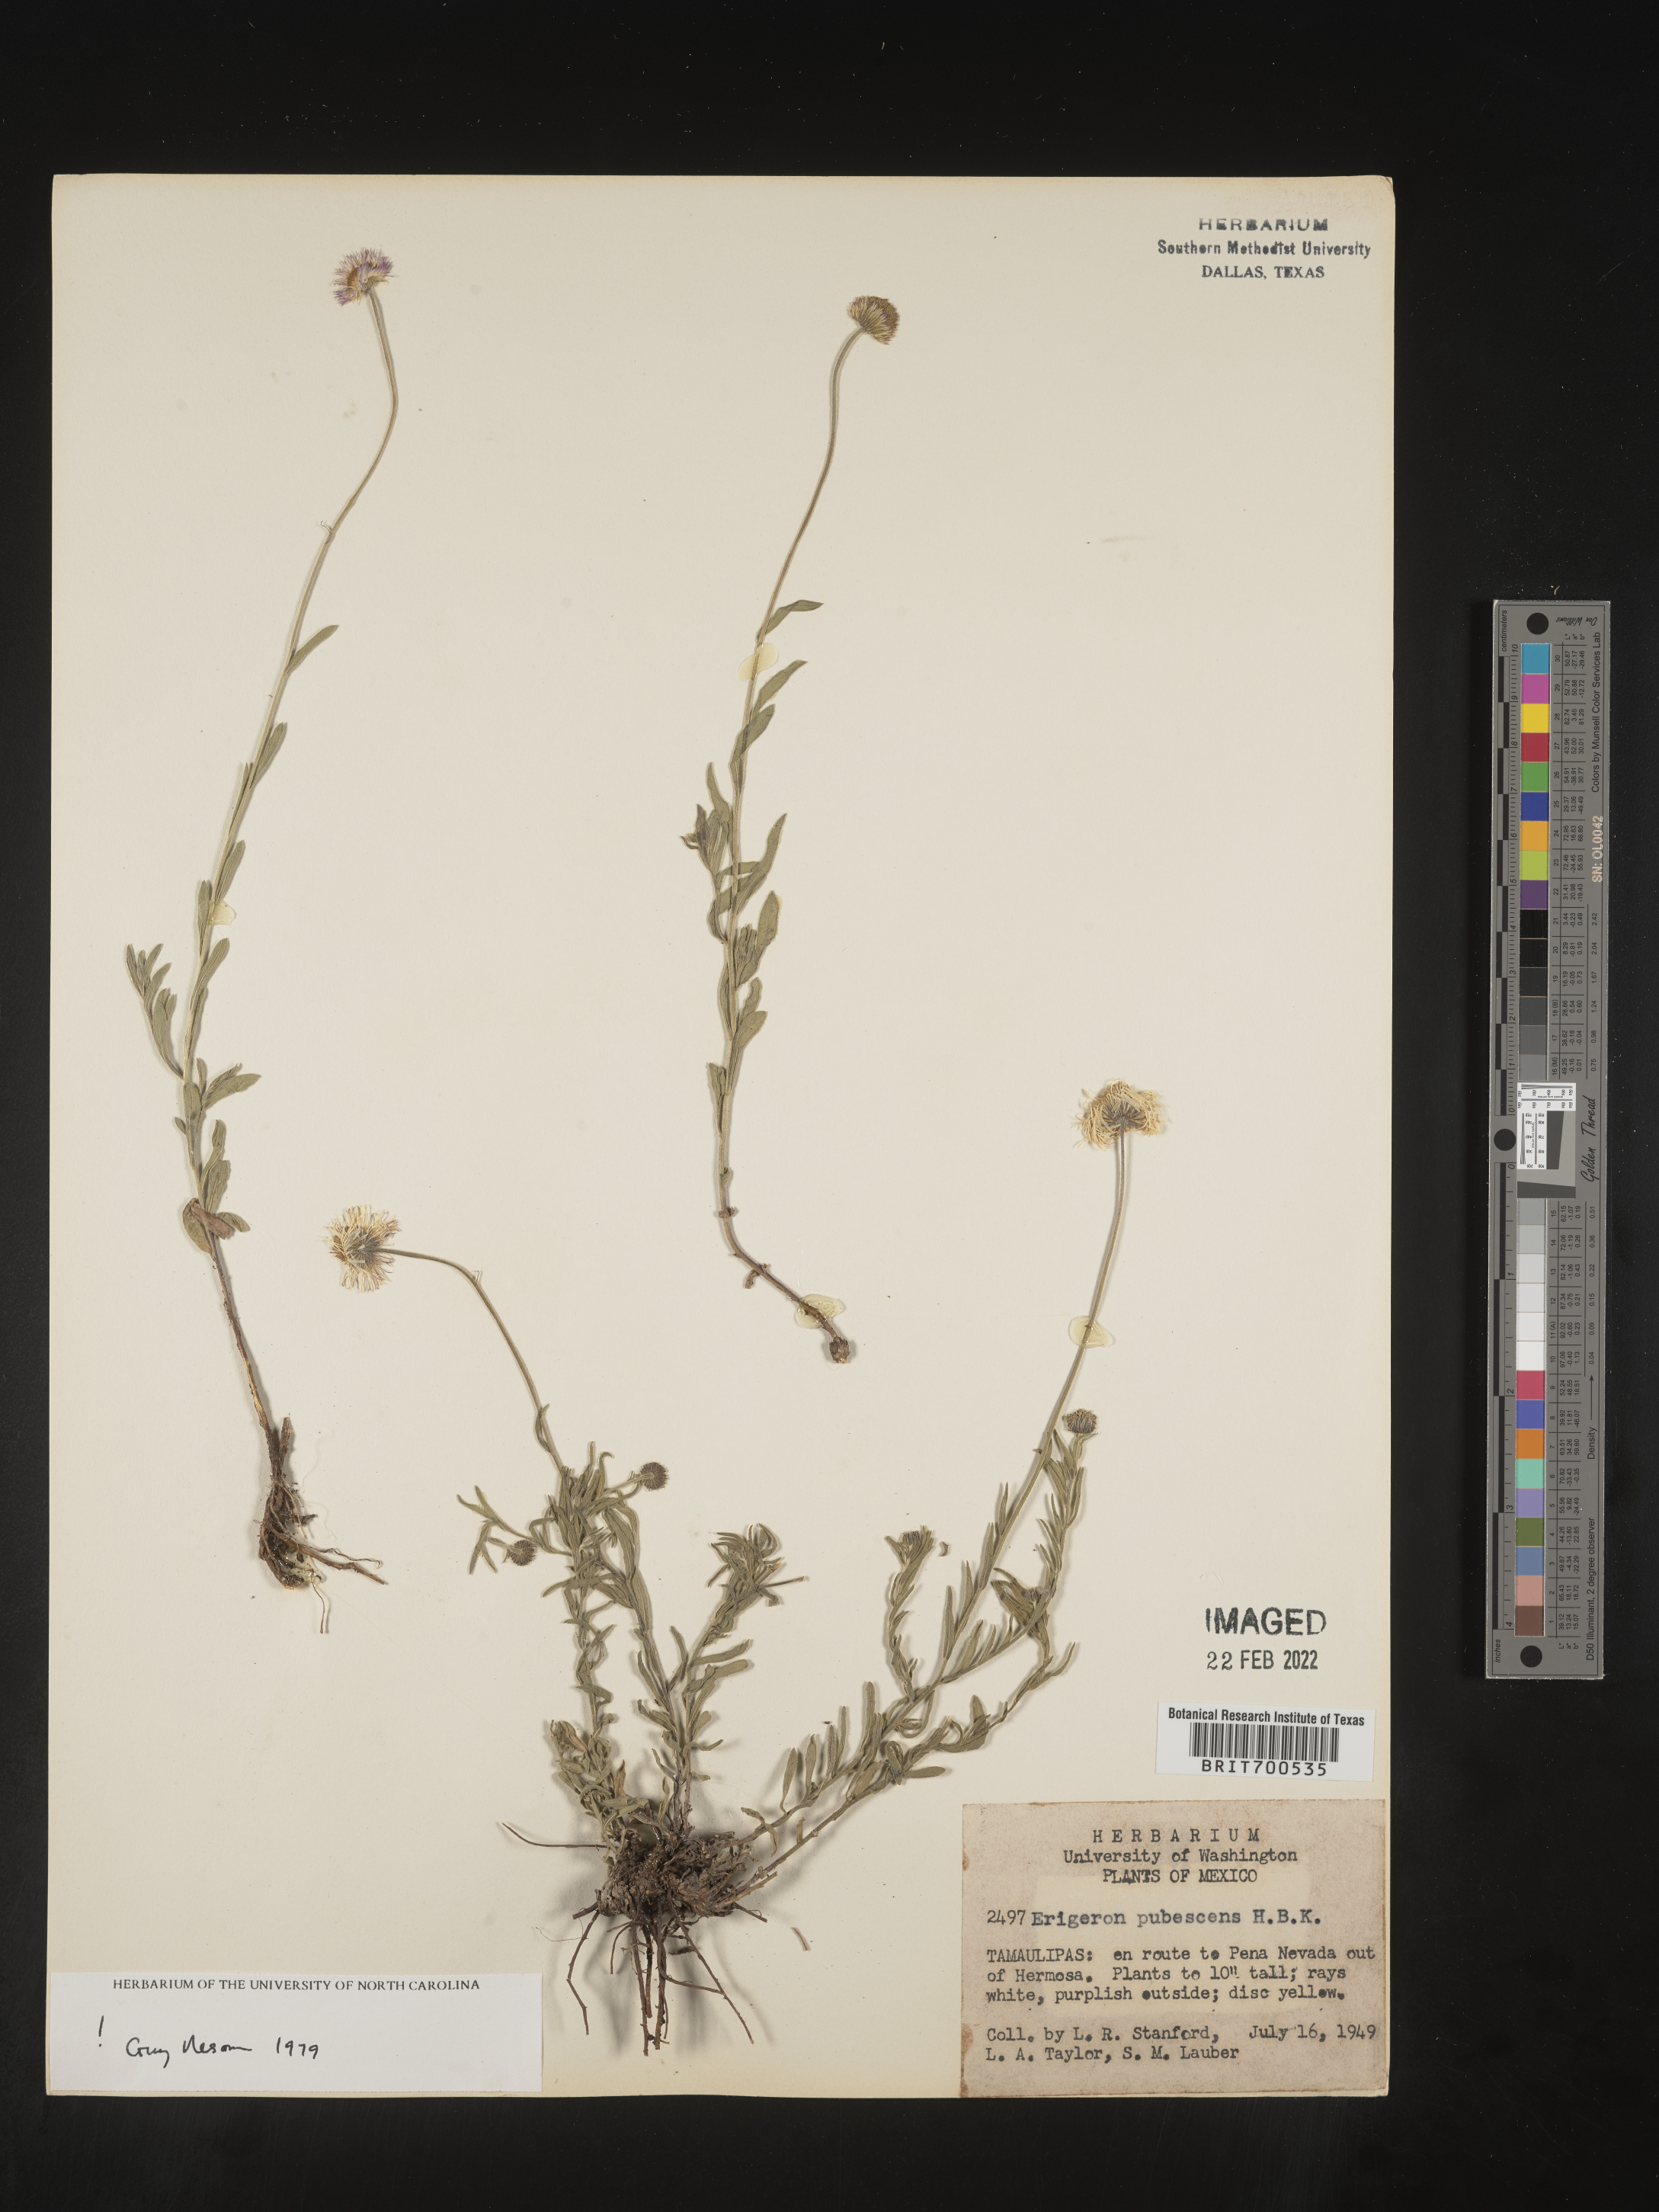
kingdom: Plantae
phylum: Tracheophyta
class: Magnoliopsida
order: Asterales
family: Asteraceae
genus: Erigeron
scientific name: Erigeron pubescens
